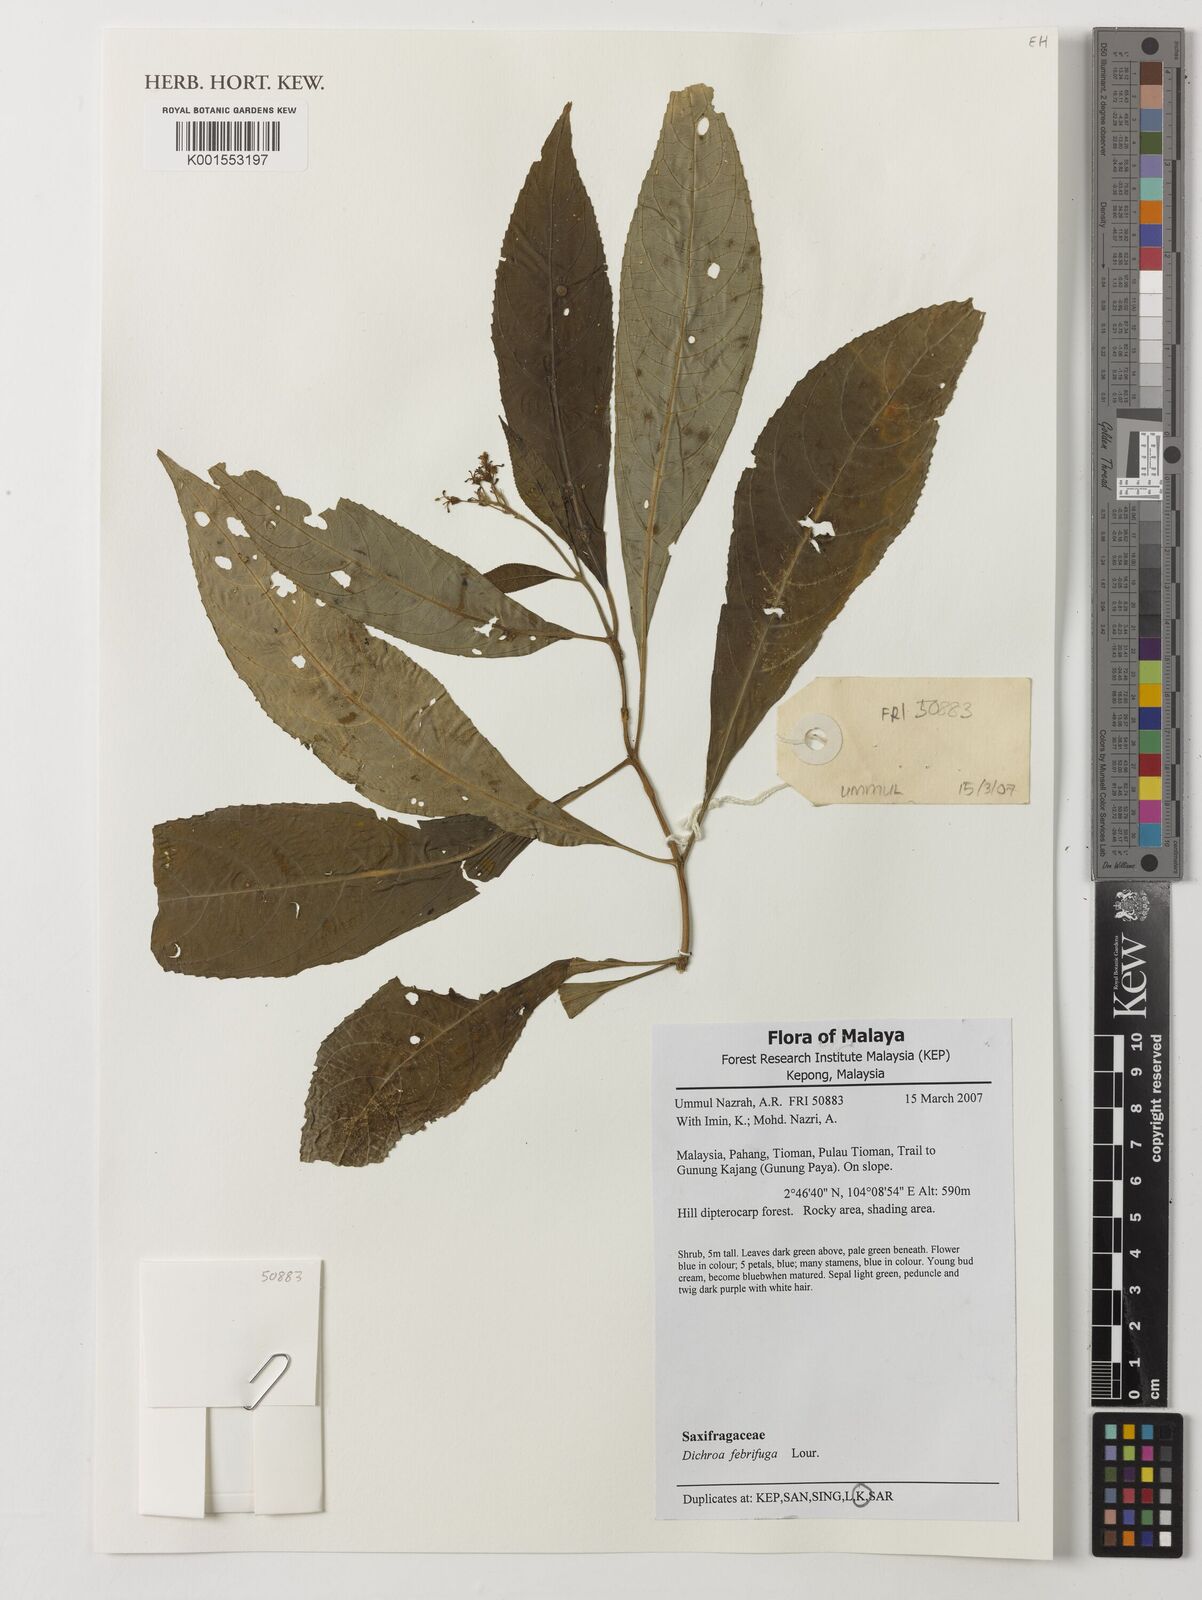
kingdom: Plantae
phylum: Tracheophyta
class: Magnoliopsida
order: Cornales
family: Hydrangeaceae
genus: Hydrangea
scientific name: Hydrangea febrifuga
